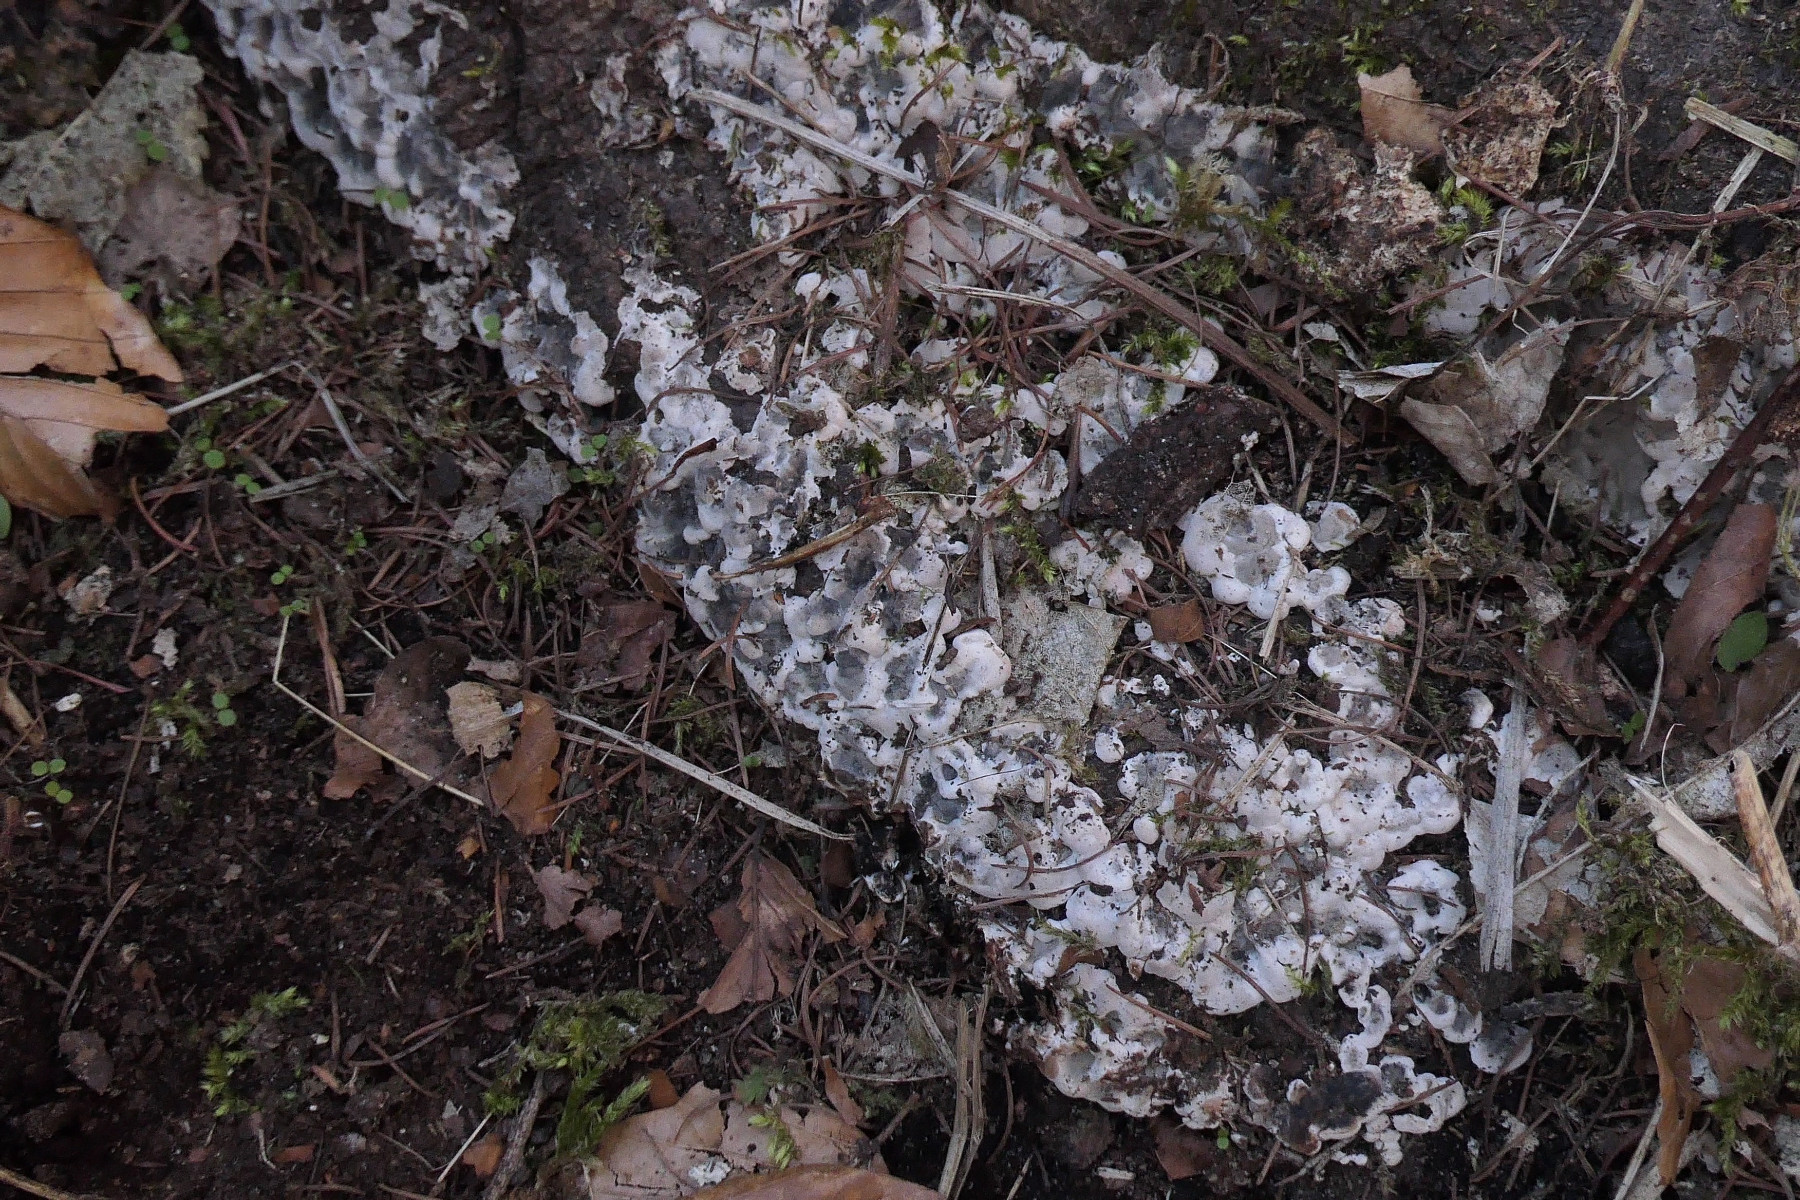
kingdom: Fungi
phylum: Ascomycota
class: Sordariomycetes
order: Xylariales
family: Xylariaceae
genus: Kretzschmaria
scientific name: Kretzschmaria deusta
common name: stor kulsvamp
